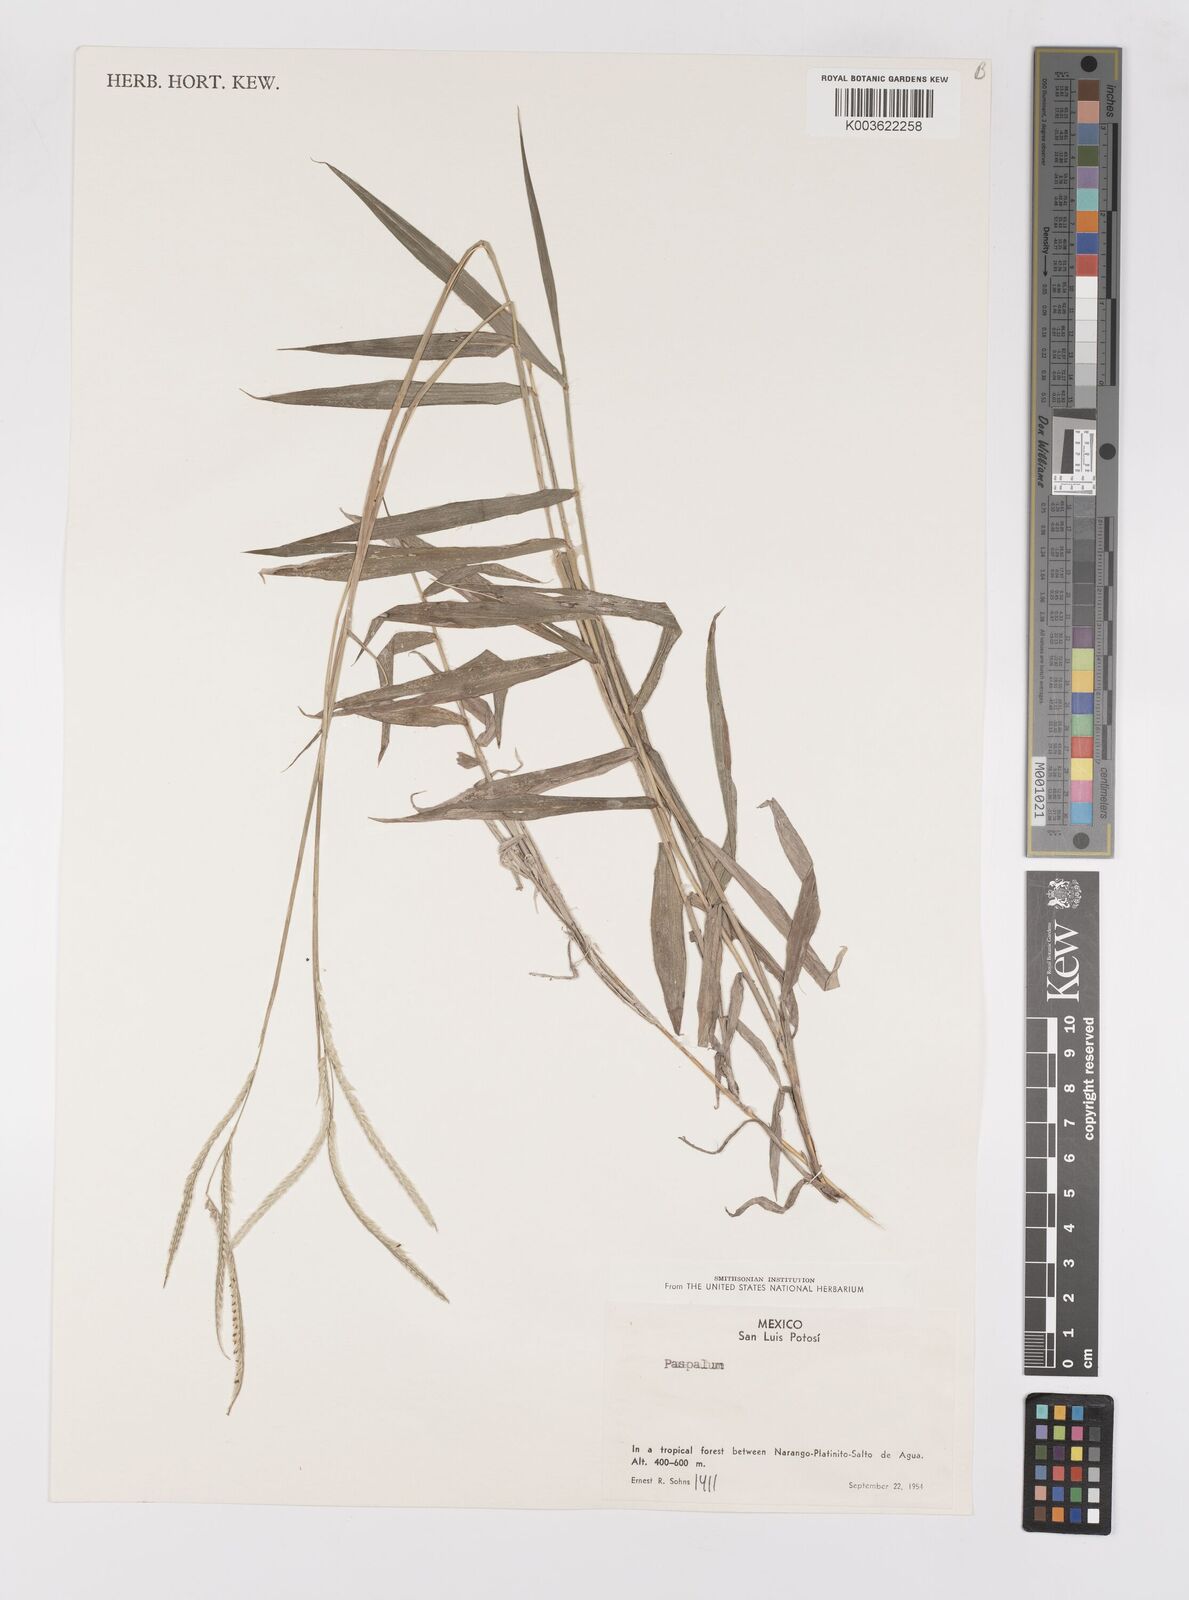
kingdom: Plantae
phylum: Tracheophyta
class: Liliopsida
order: Poales
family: Poaceae
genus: Paspalum
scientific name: Paspalum
